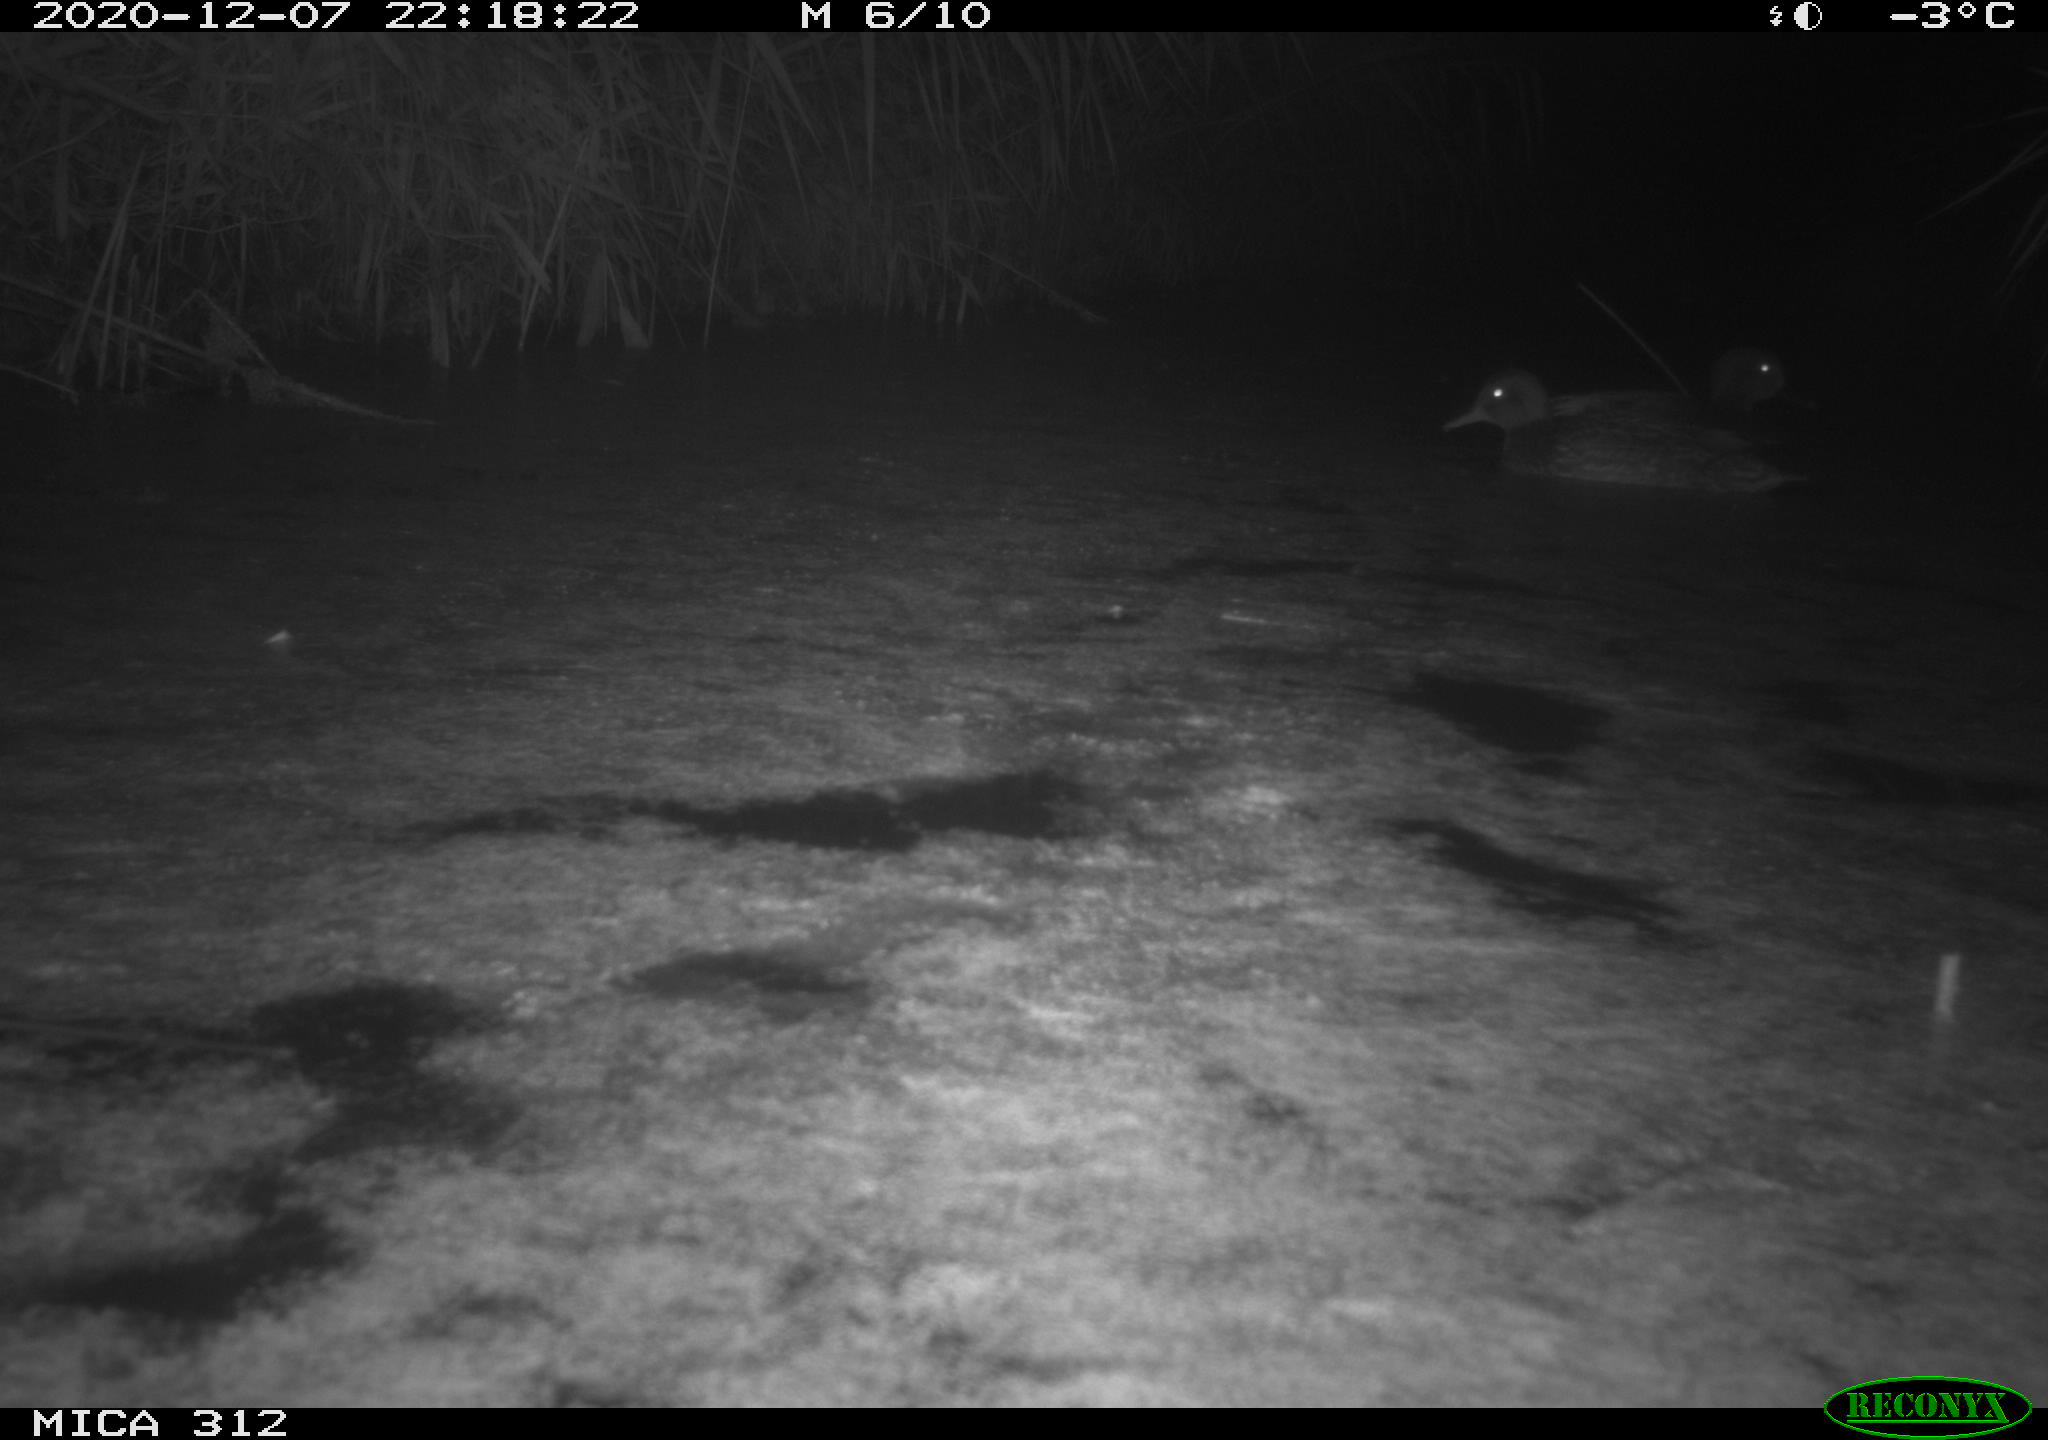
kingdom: Animalia
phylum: Chordata
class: Aves
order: Gruiformes
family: Rallidae
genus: Gallinula
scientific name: Gallinula chloropus
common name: Common moorhen
